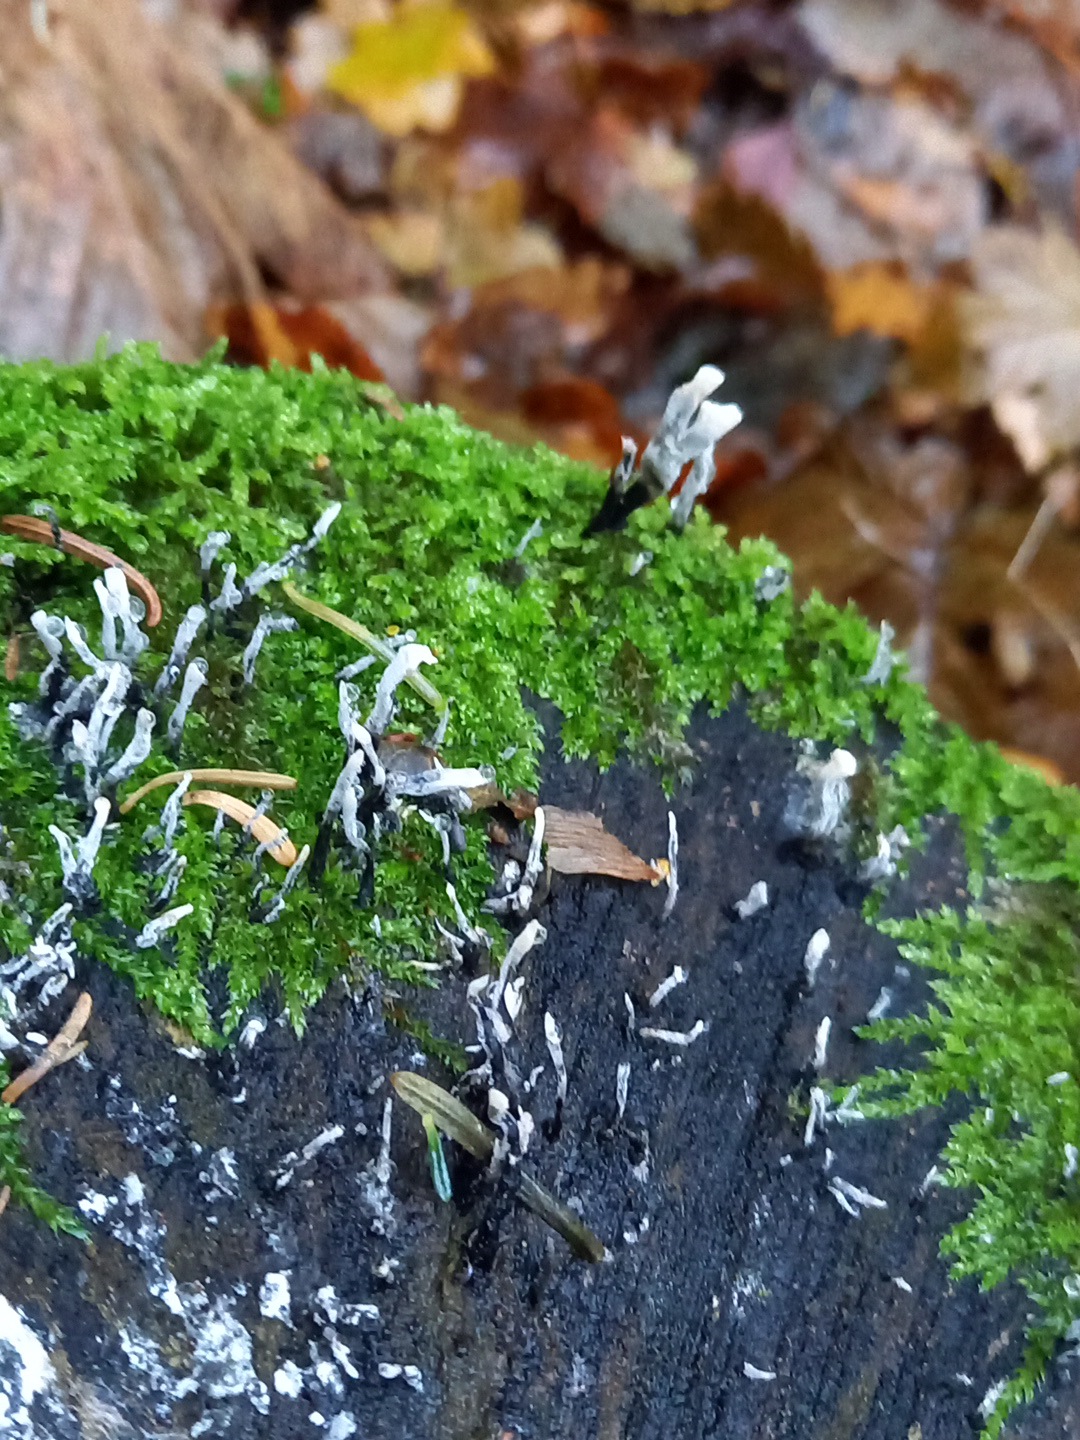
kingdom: Fungi
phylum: Ascomycota
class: Sordariomycetes
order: Xylariales
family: Xylariaceae
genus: Xylaria
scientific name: Xylaria hypoxylon
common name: grenet stødsvamp
